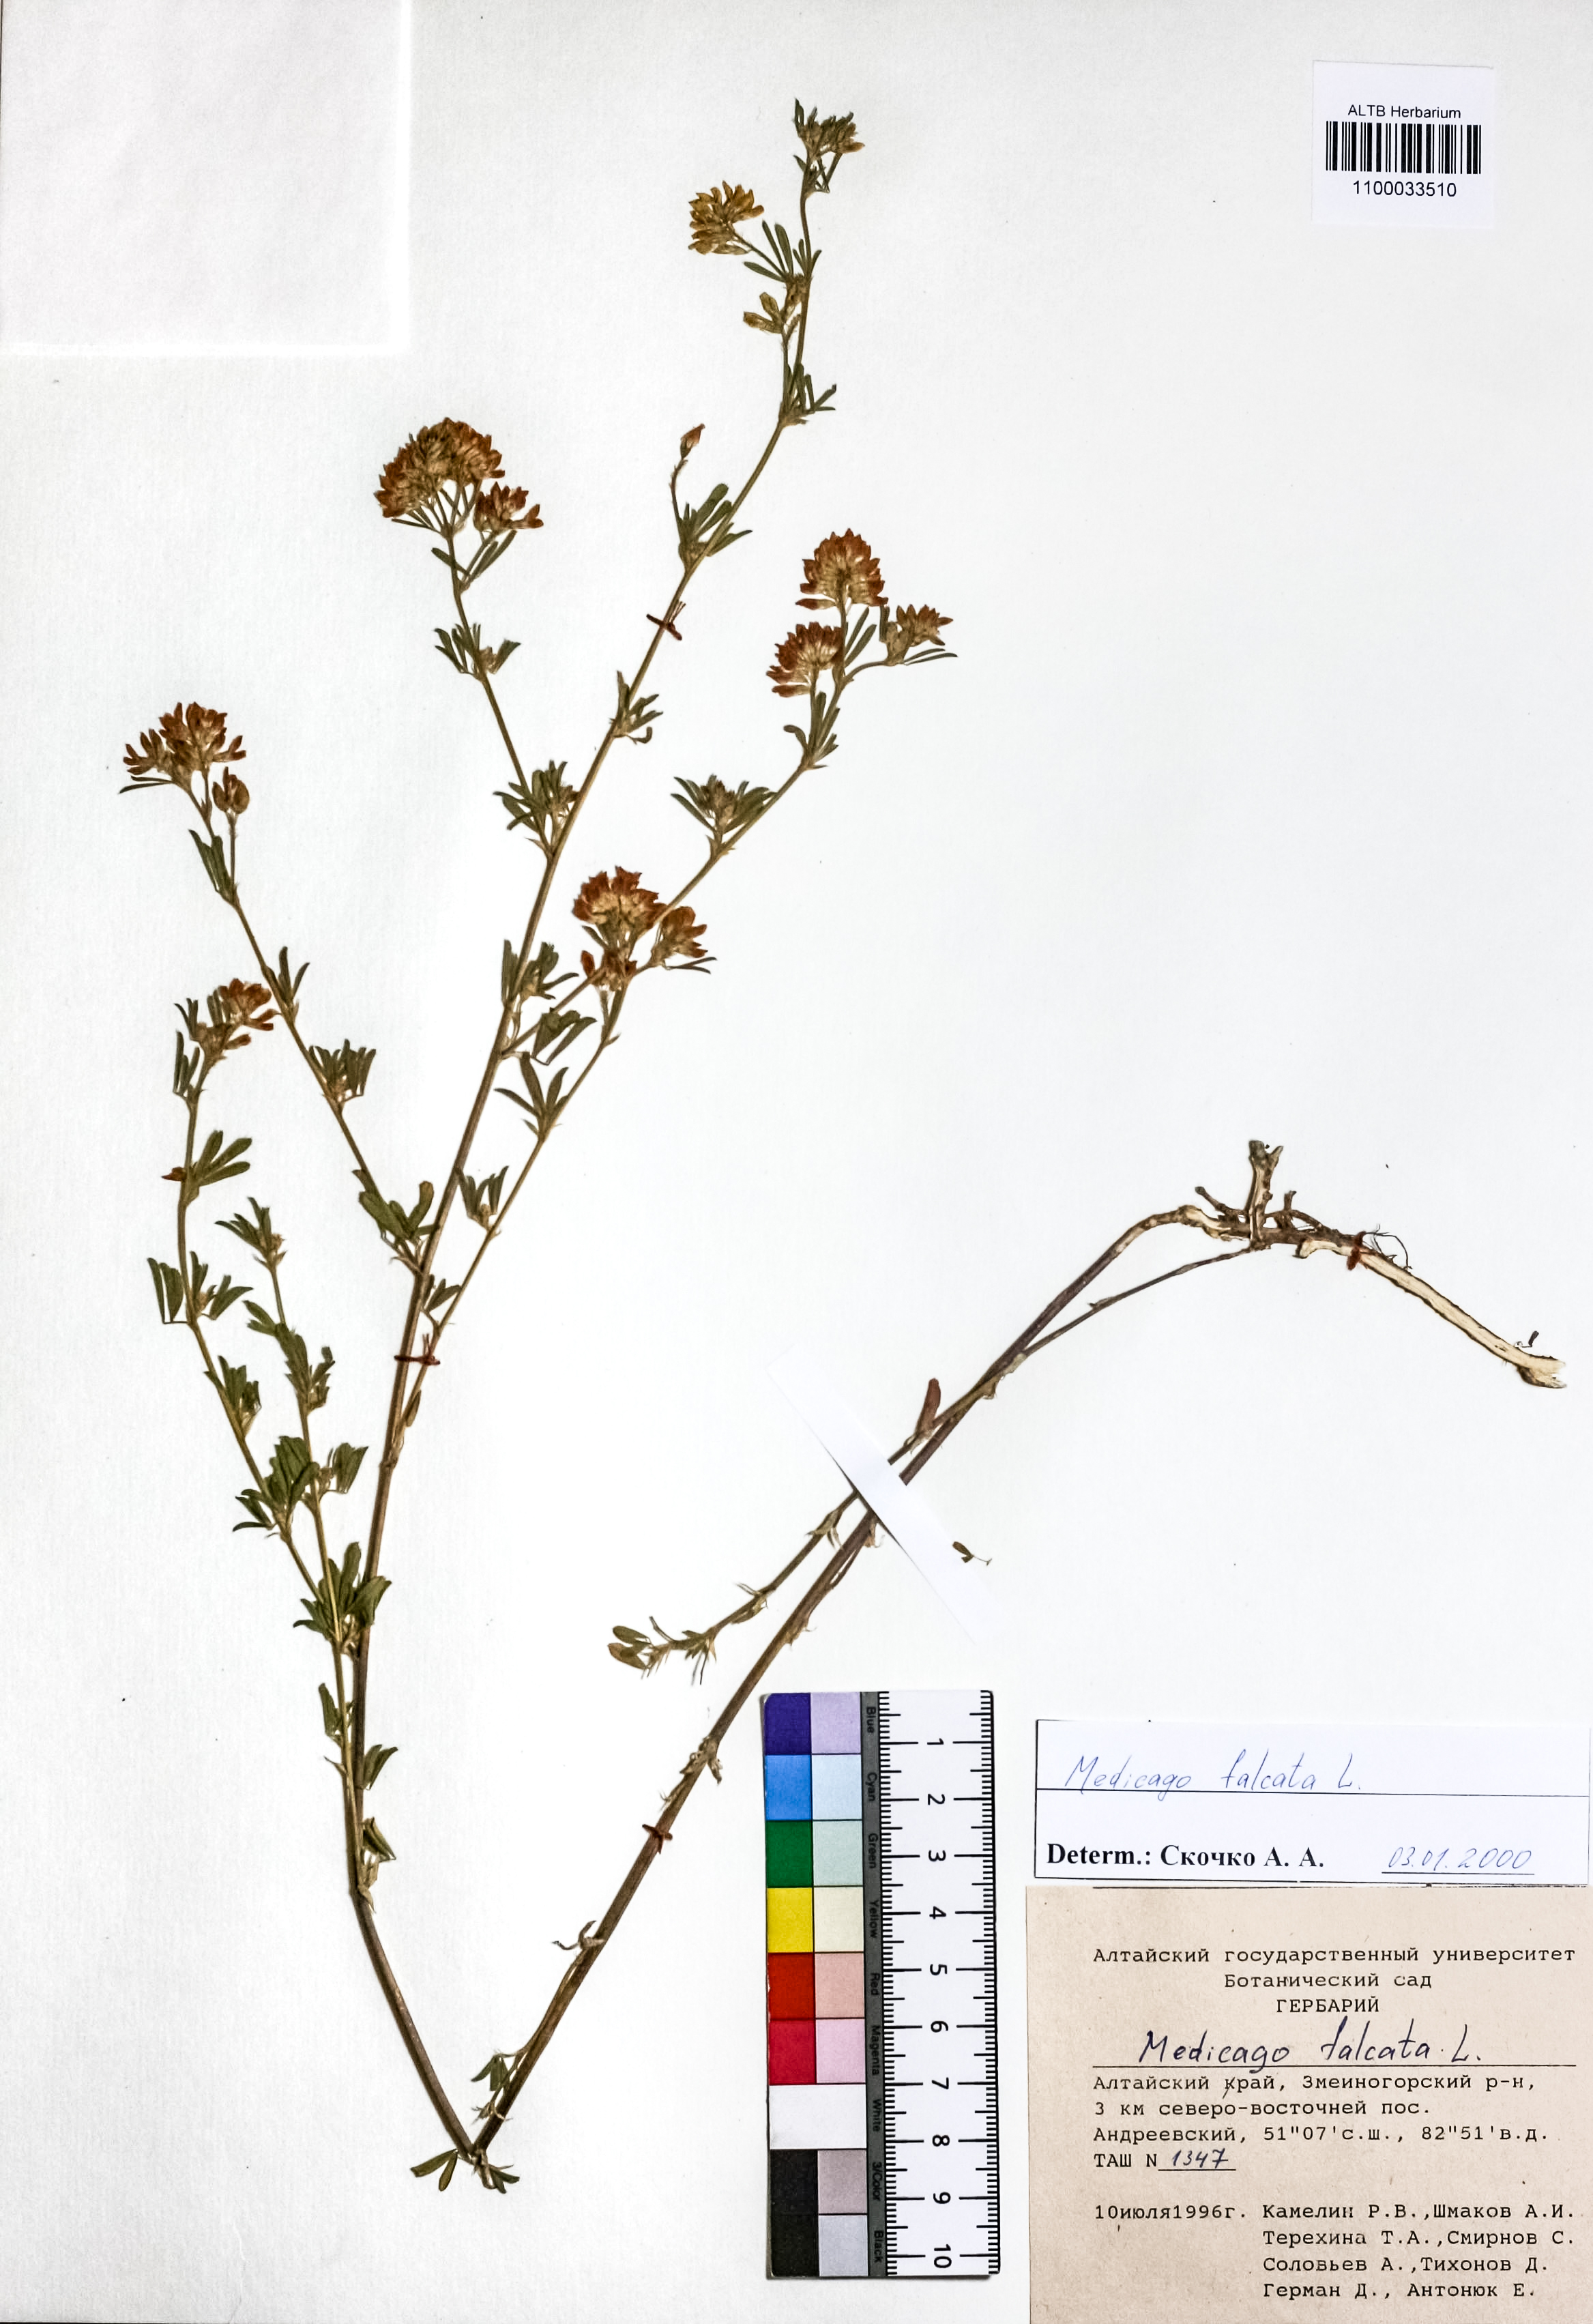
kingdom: Plantae
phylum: Tracheophyta
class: Magnoliopsida
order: Fabales
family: Fabaceae
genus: Medicago
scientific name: Medicago falcata
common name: Sickle medick
